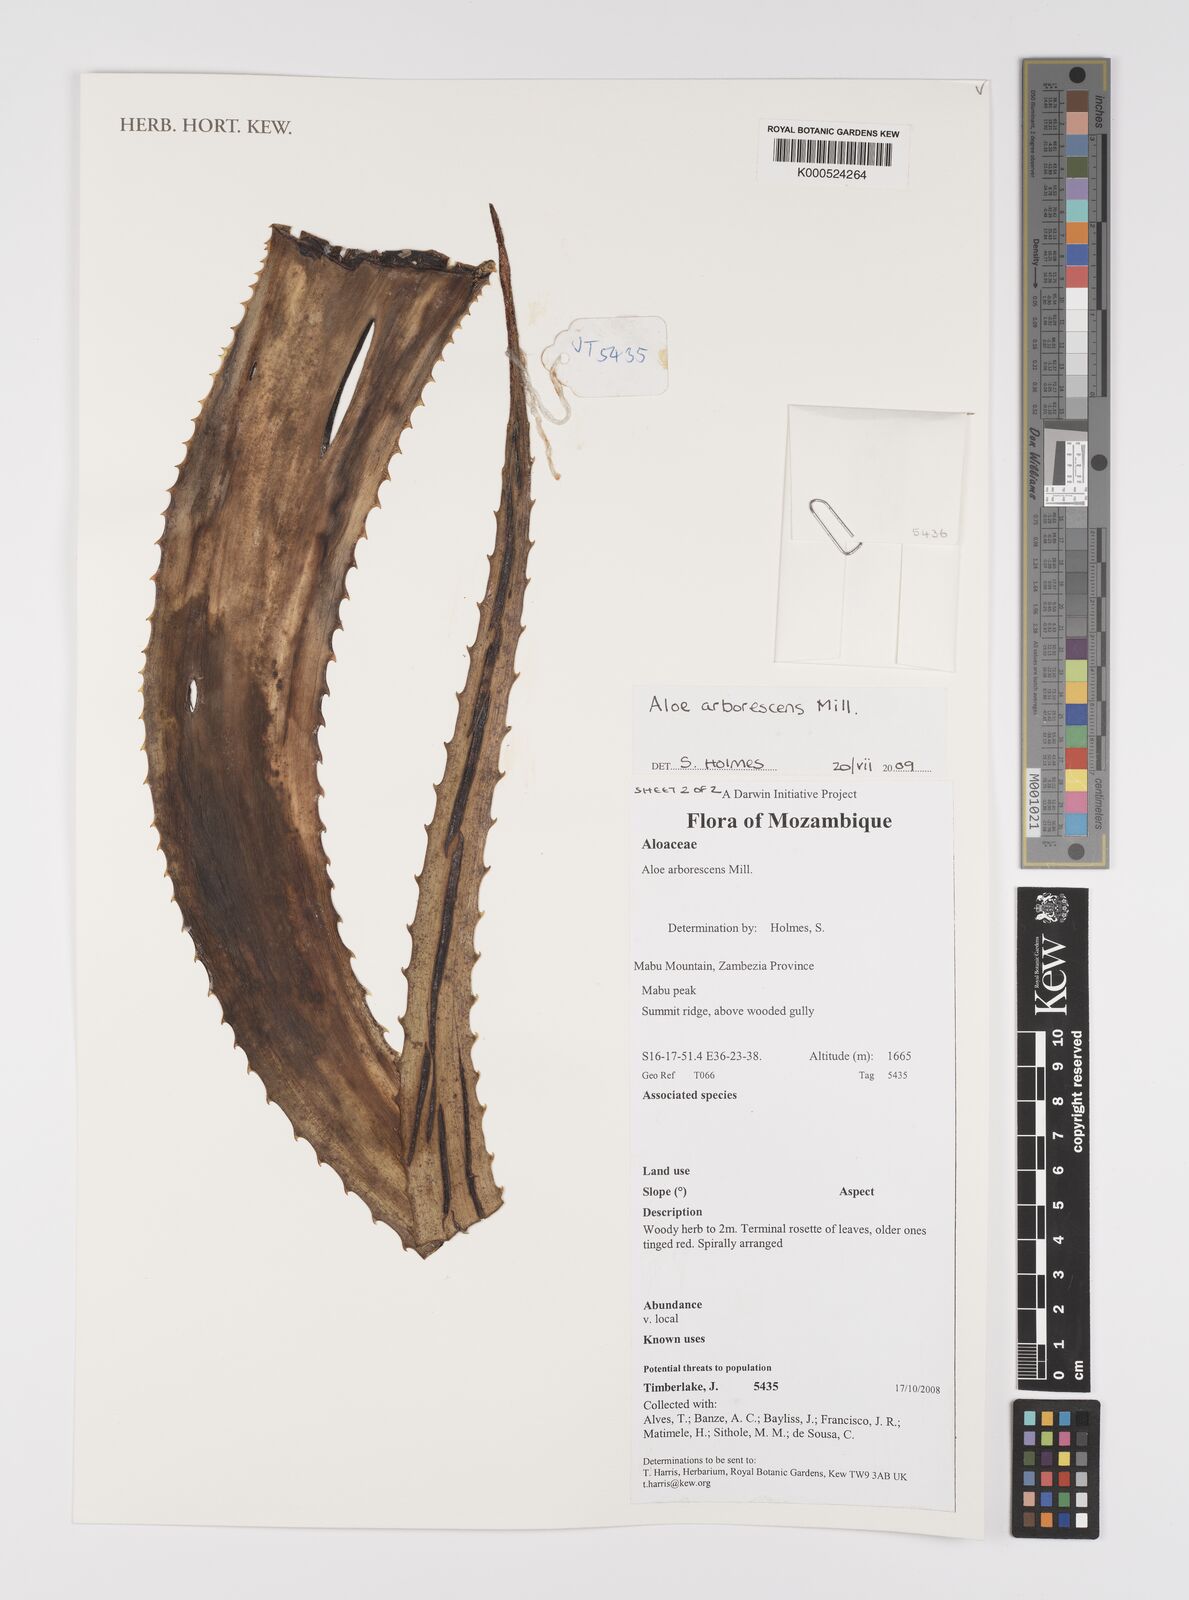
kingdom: Plantae
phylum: Tracheophyta
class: Liliopsida
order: Asparagales
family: Asphodelaceae
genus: Aloe
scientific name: Aloe arborescens
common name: Candelabra aloe
